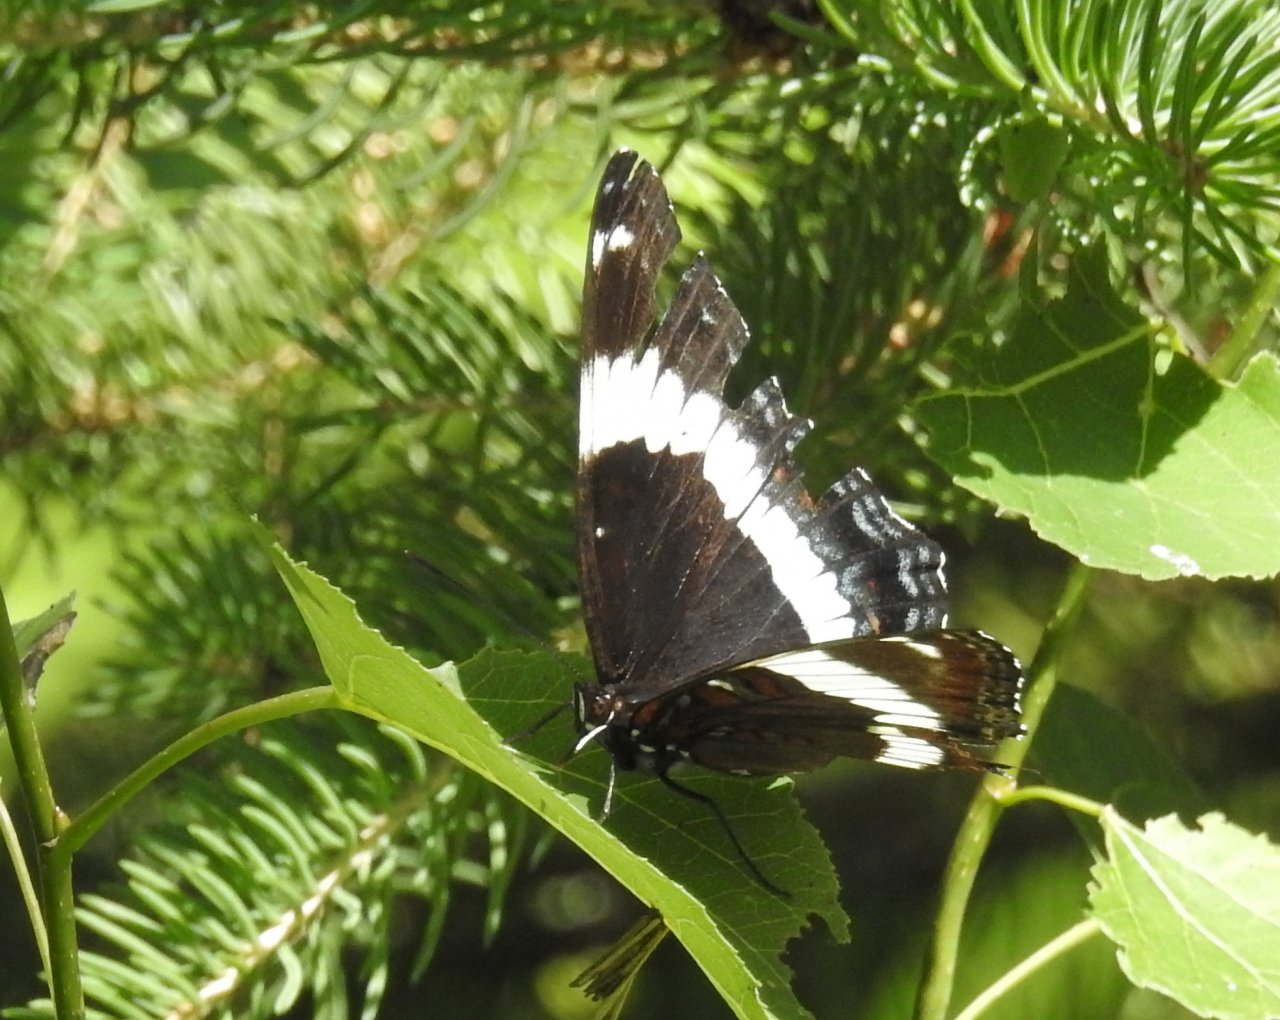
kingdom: Animalia
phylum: Arthropoda
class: Insecta
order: Lepidoptera
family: Nymphalidae
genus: Limenitis
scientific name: Limenitis arthemis
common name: Red-spotted Admiral
